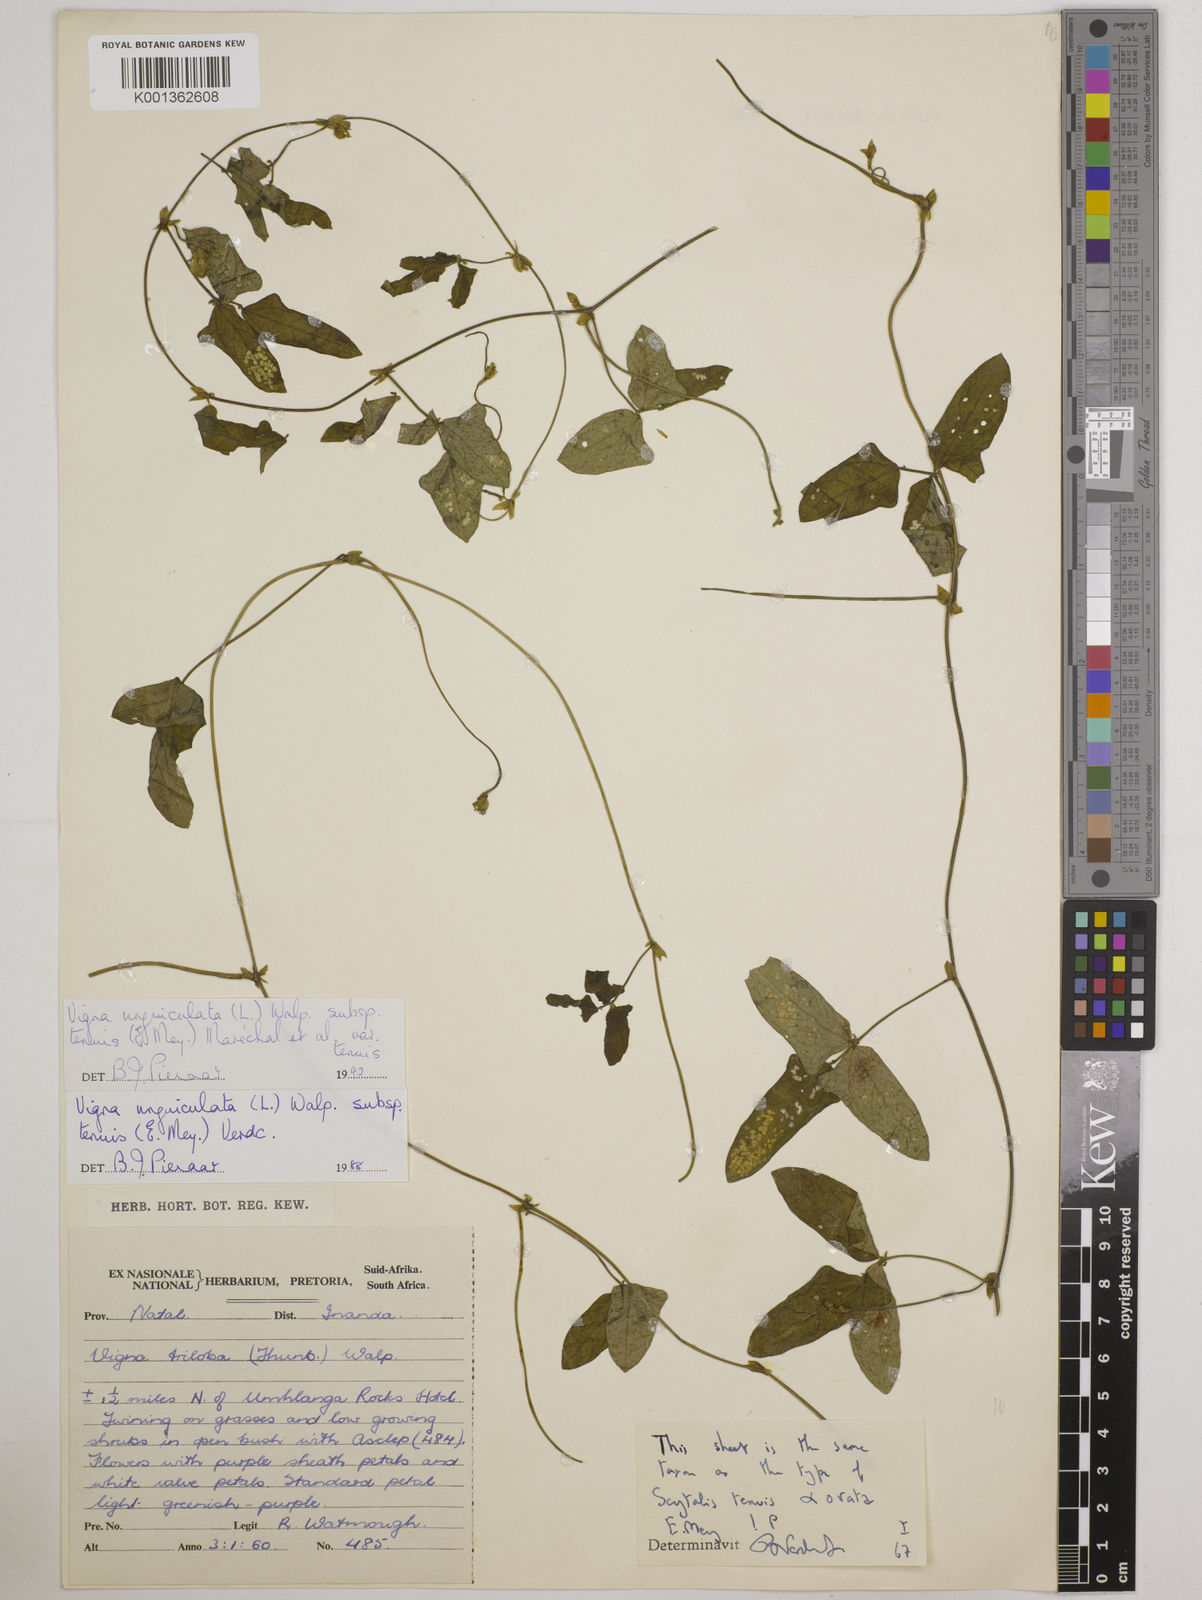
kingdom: Plantae
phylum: Tracheophyta
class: Magnoliopsida
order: Fabales
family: Fabaceae
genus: Vigna
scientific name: Vigna
